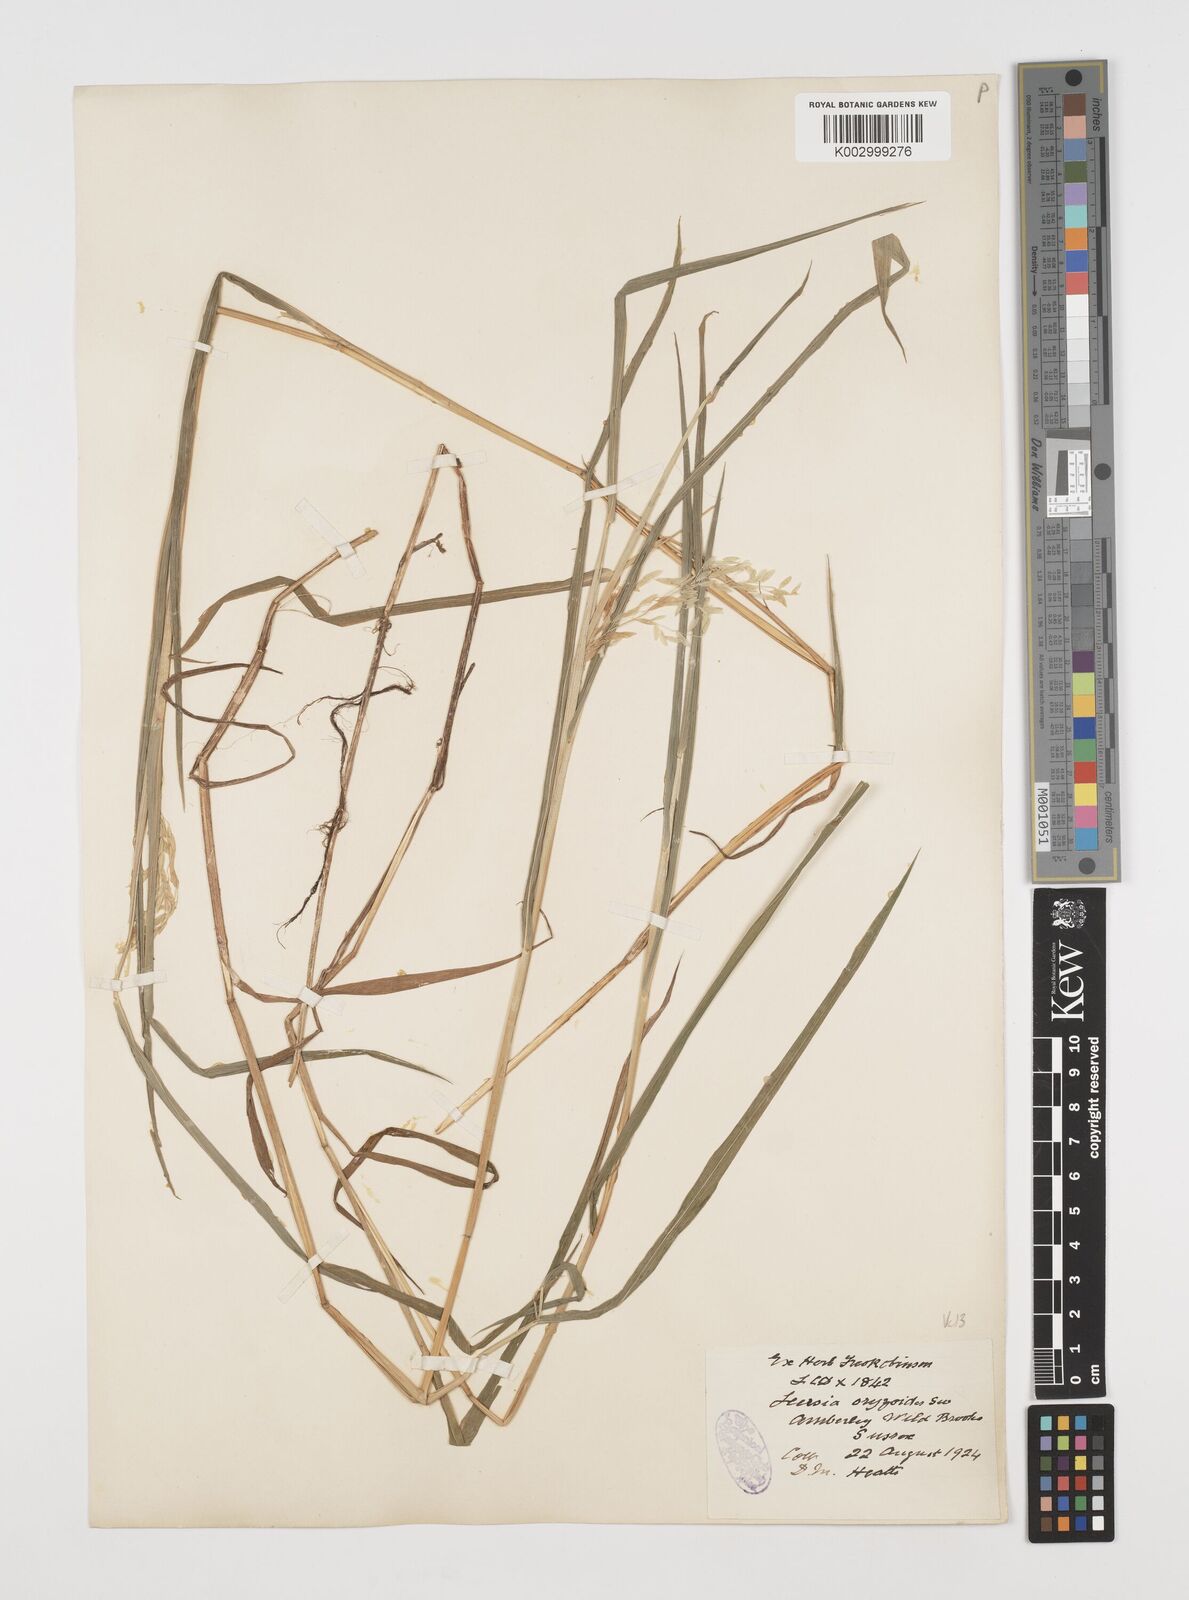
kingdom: Plantae
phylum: Tracheophyta
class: Liliopsida
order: Poales
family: Poaceae
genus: Leersia
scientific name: Leersia oryzoides
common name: Cut-grass
